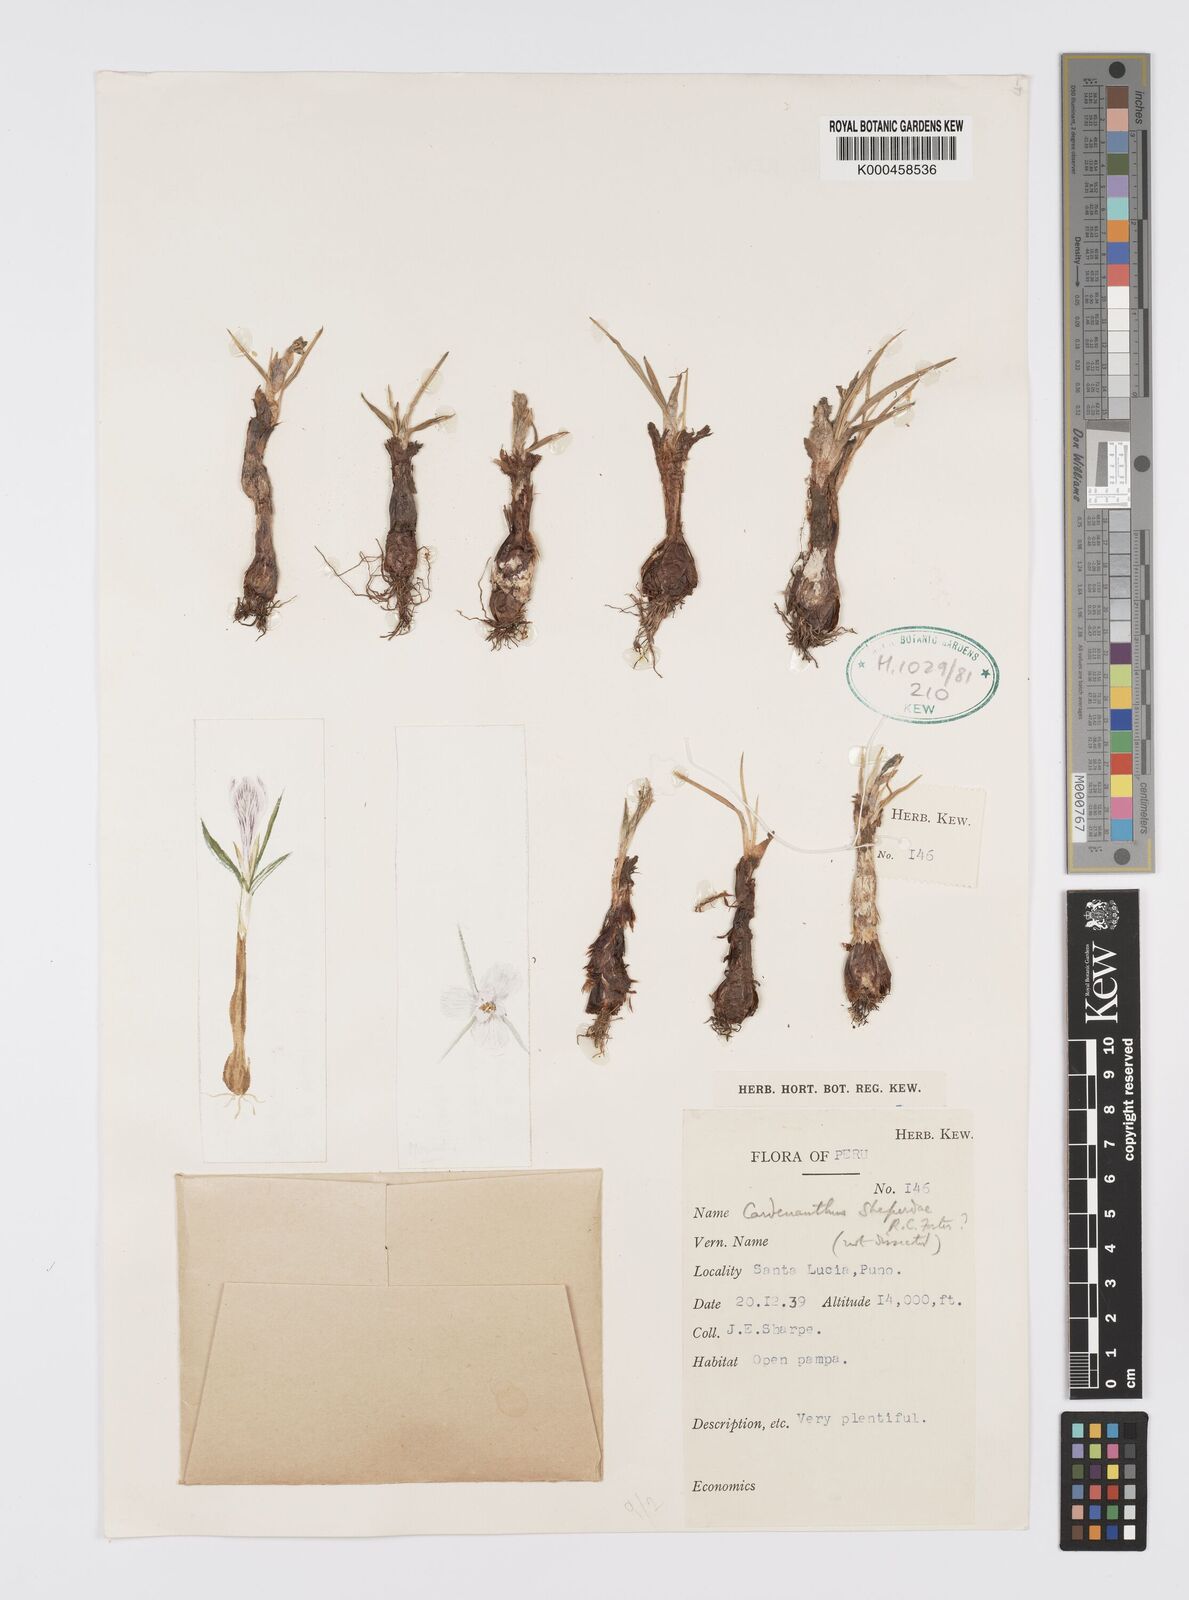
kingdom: Plantae
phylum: Tracheophyta
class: Liliopsida
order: Asparagales
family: Iridaceae
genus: Mastigostyla
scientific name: Mastigostyla shepardiae
